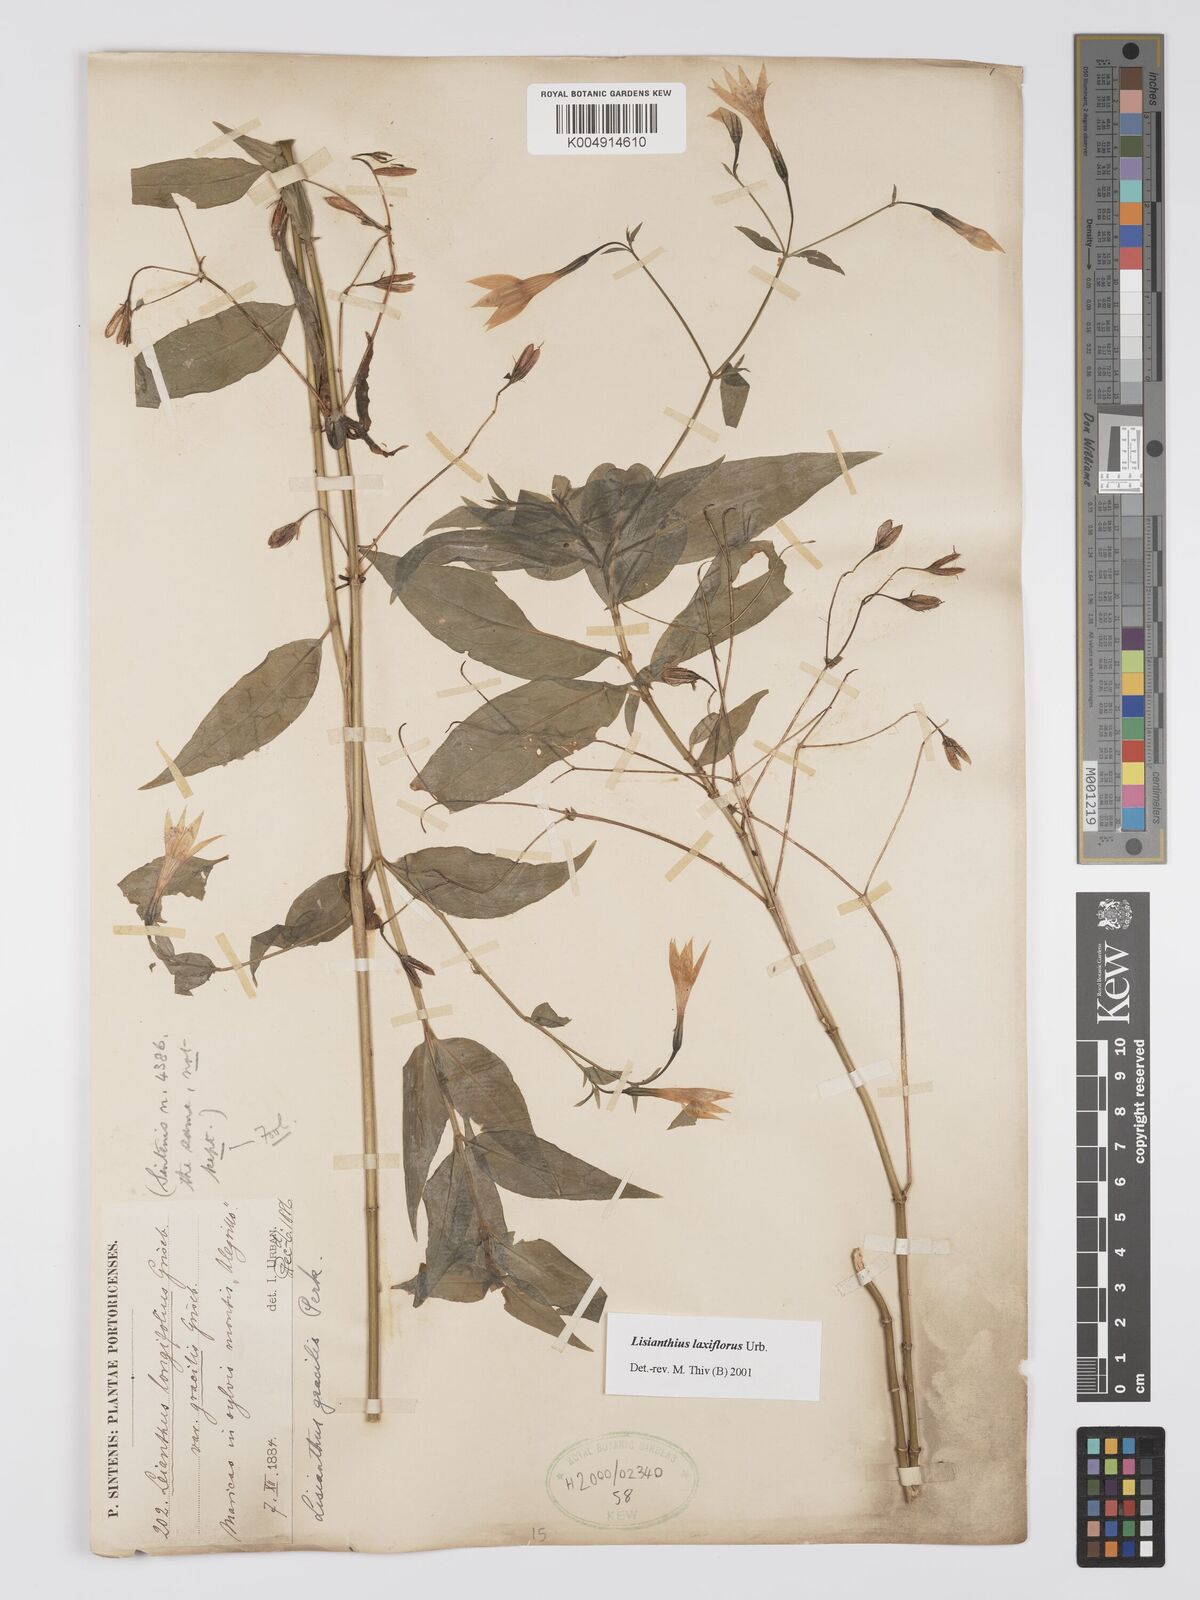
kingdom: Plantae
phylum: Tracheophyta
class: Magnoliopsida
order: Gentianales
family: Gentianaceae
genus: Lisianthius
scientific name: Lisianthius laxiflorus
